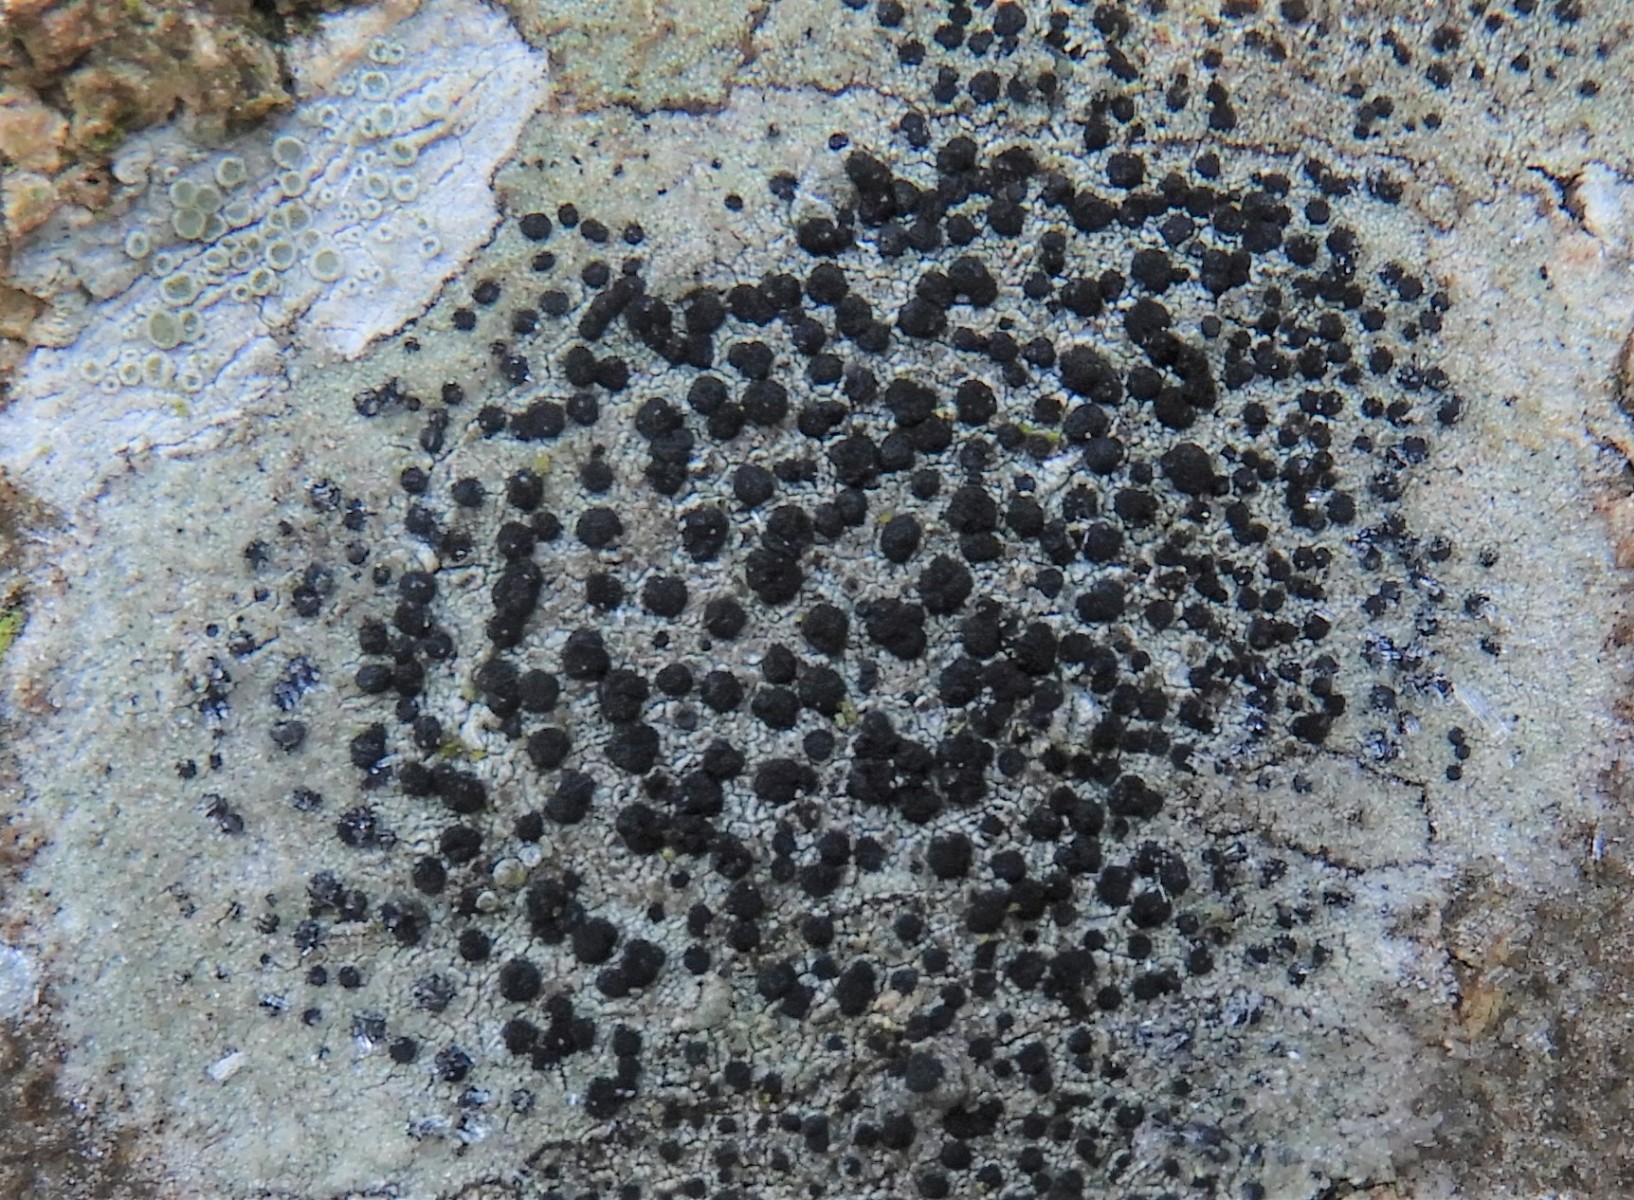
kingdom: Fungi
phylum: Ascomycota
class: Lecanoromycetes
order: Lecanorales
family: Lecanoraceae
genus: Lecidella
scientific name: Lecidella elaeochroma
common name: grågrøn skivelav
